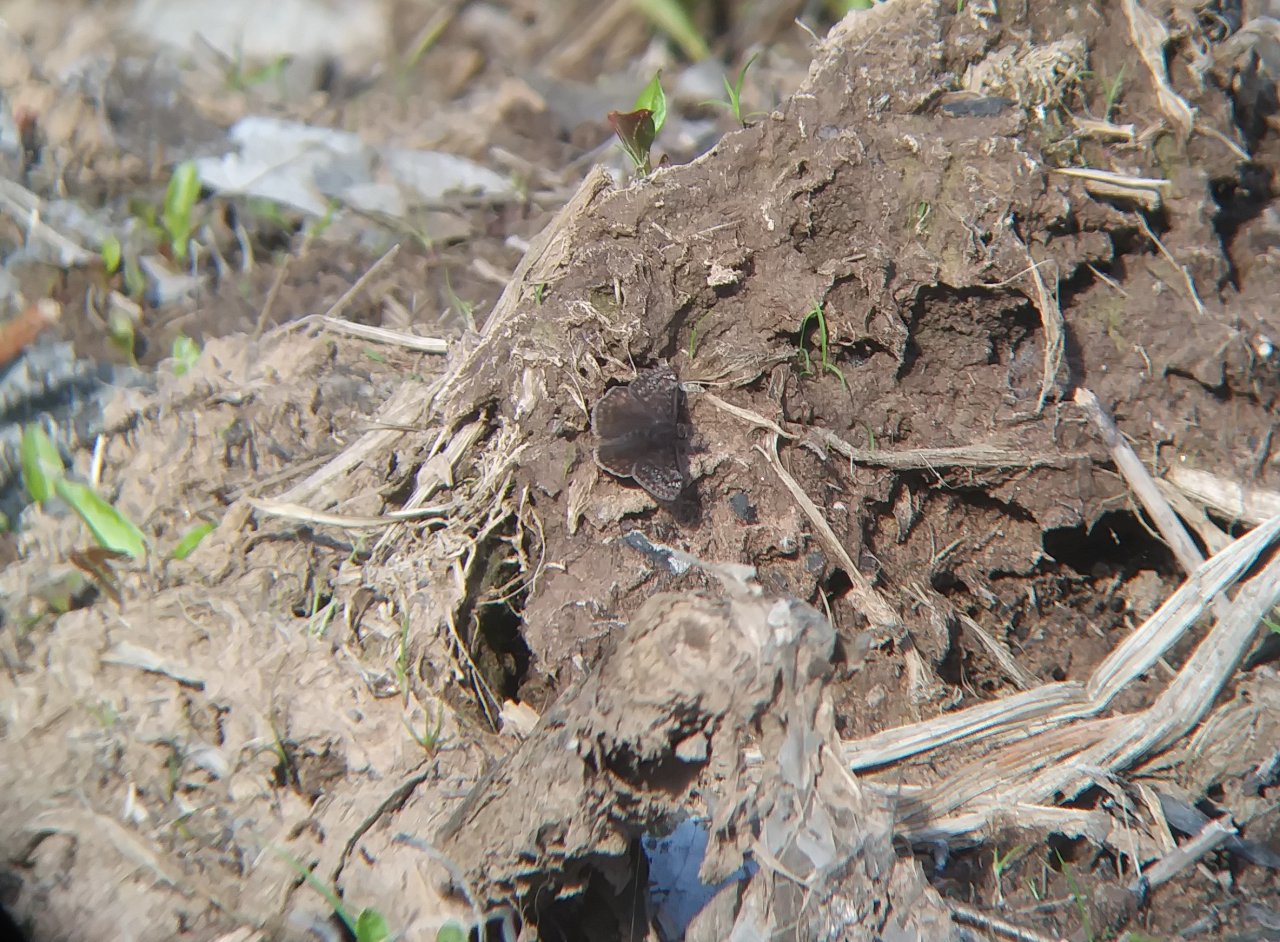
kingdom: Animalia
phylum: Arthropoda
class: Insecta
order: Lepidoptera
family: Hesperiidae
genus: Gesta
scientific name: Gesta
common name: Juvenal's Duskywing
